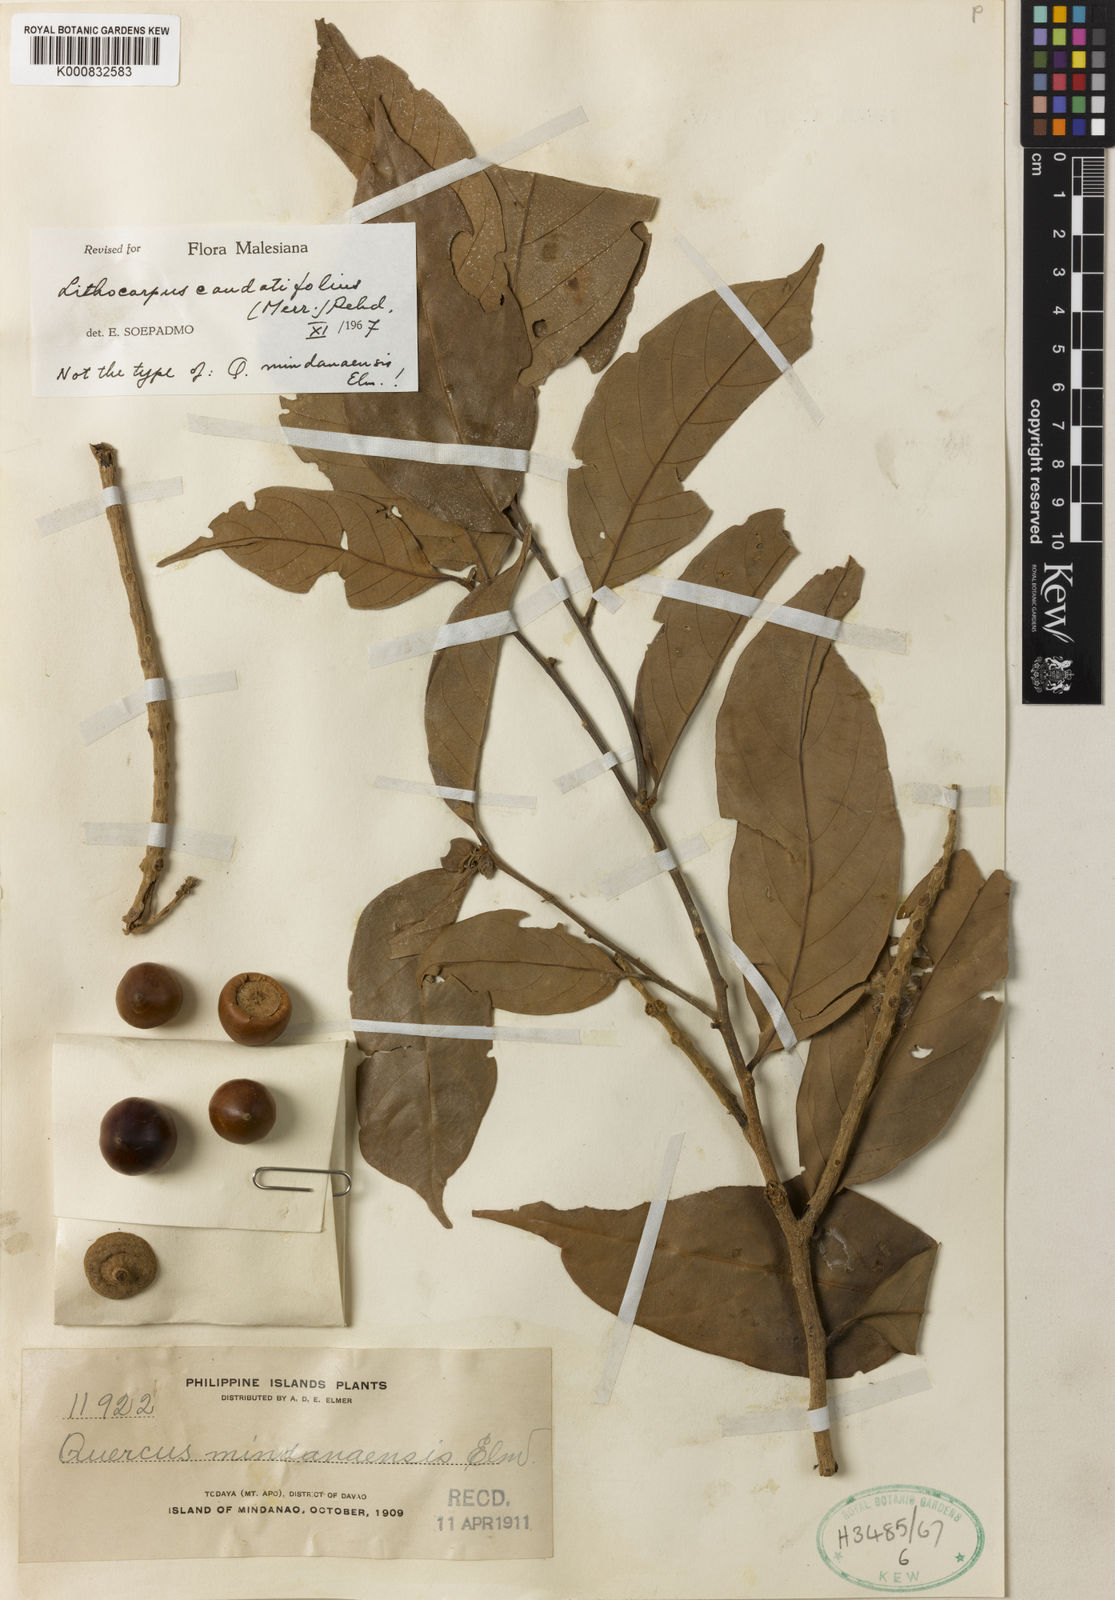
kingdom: Plantae
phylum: Tracheophyta
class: Magnoliopsida
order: Fagales
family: Fagaceae
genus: Lithocarpus
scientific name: Lithocarpus caudatifolius
